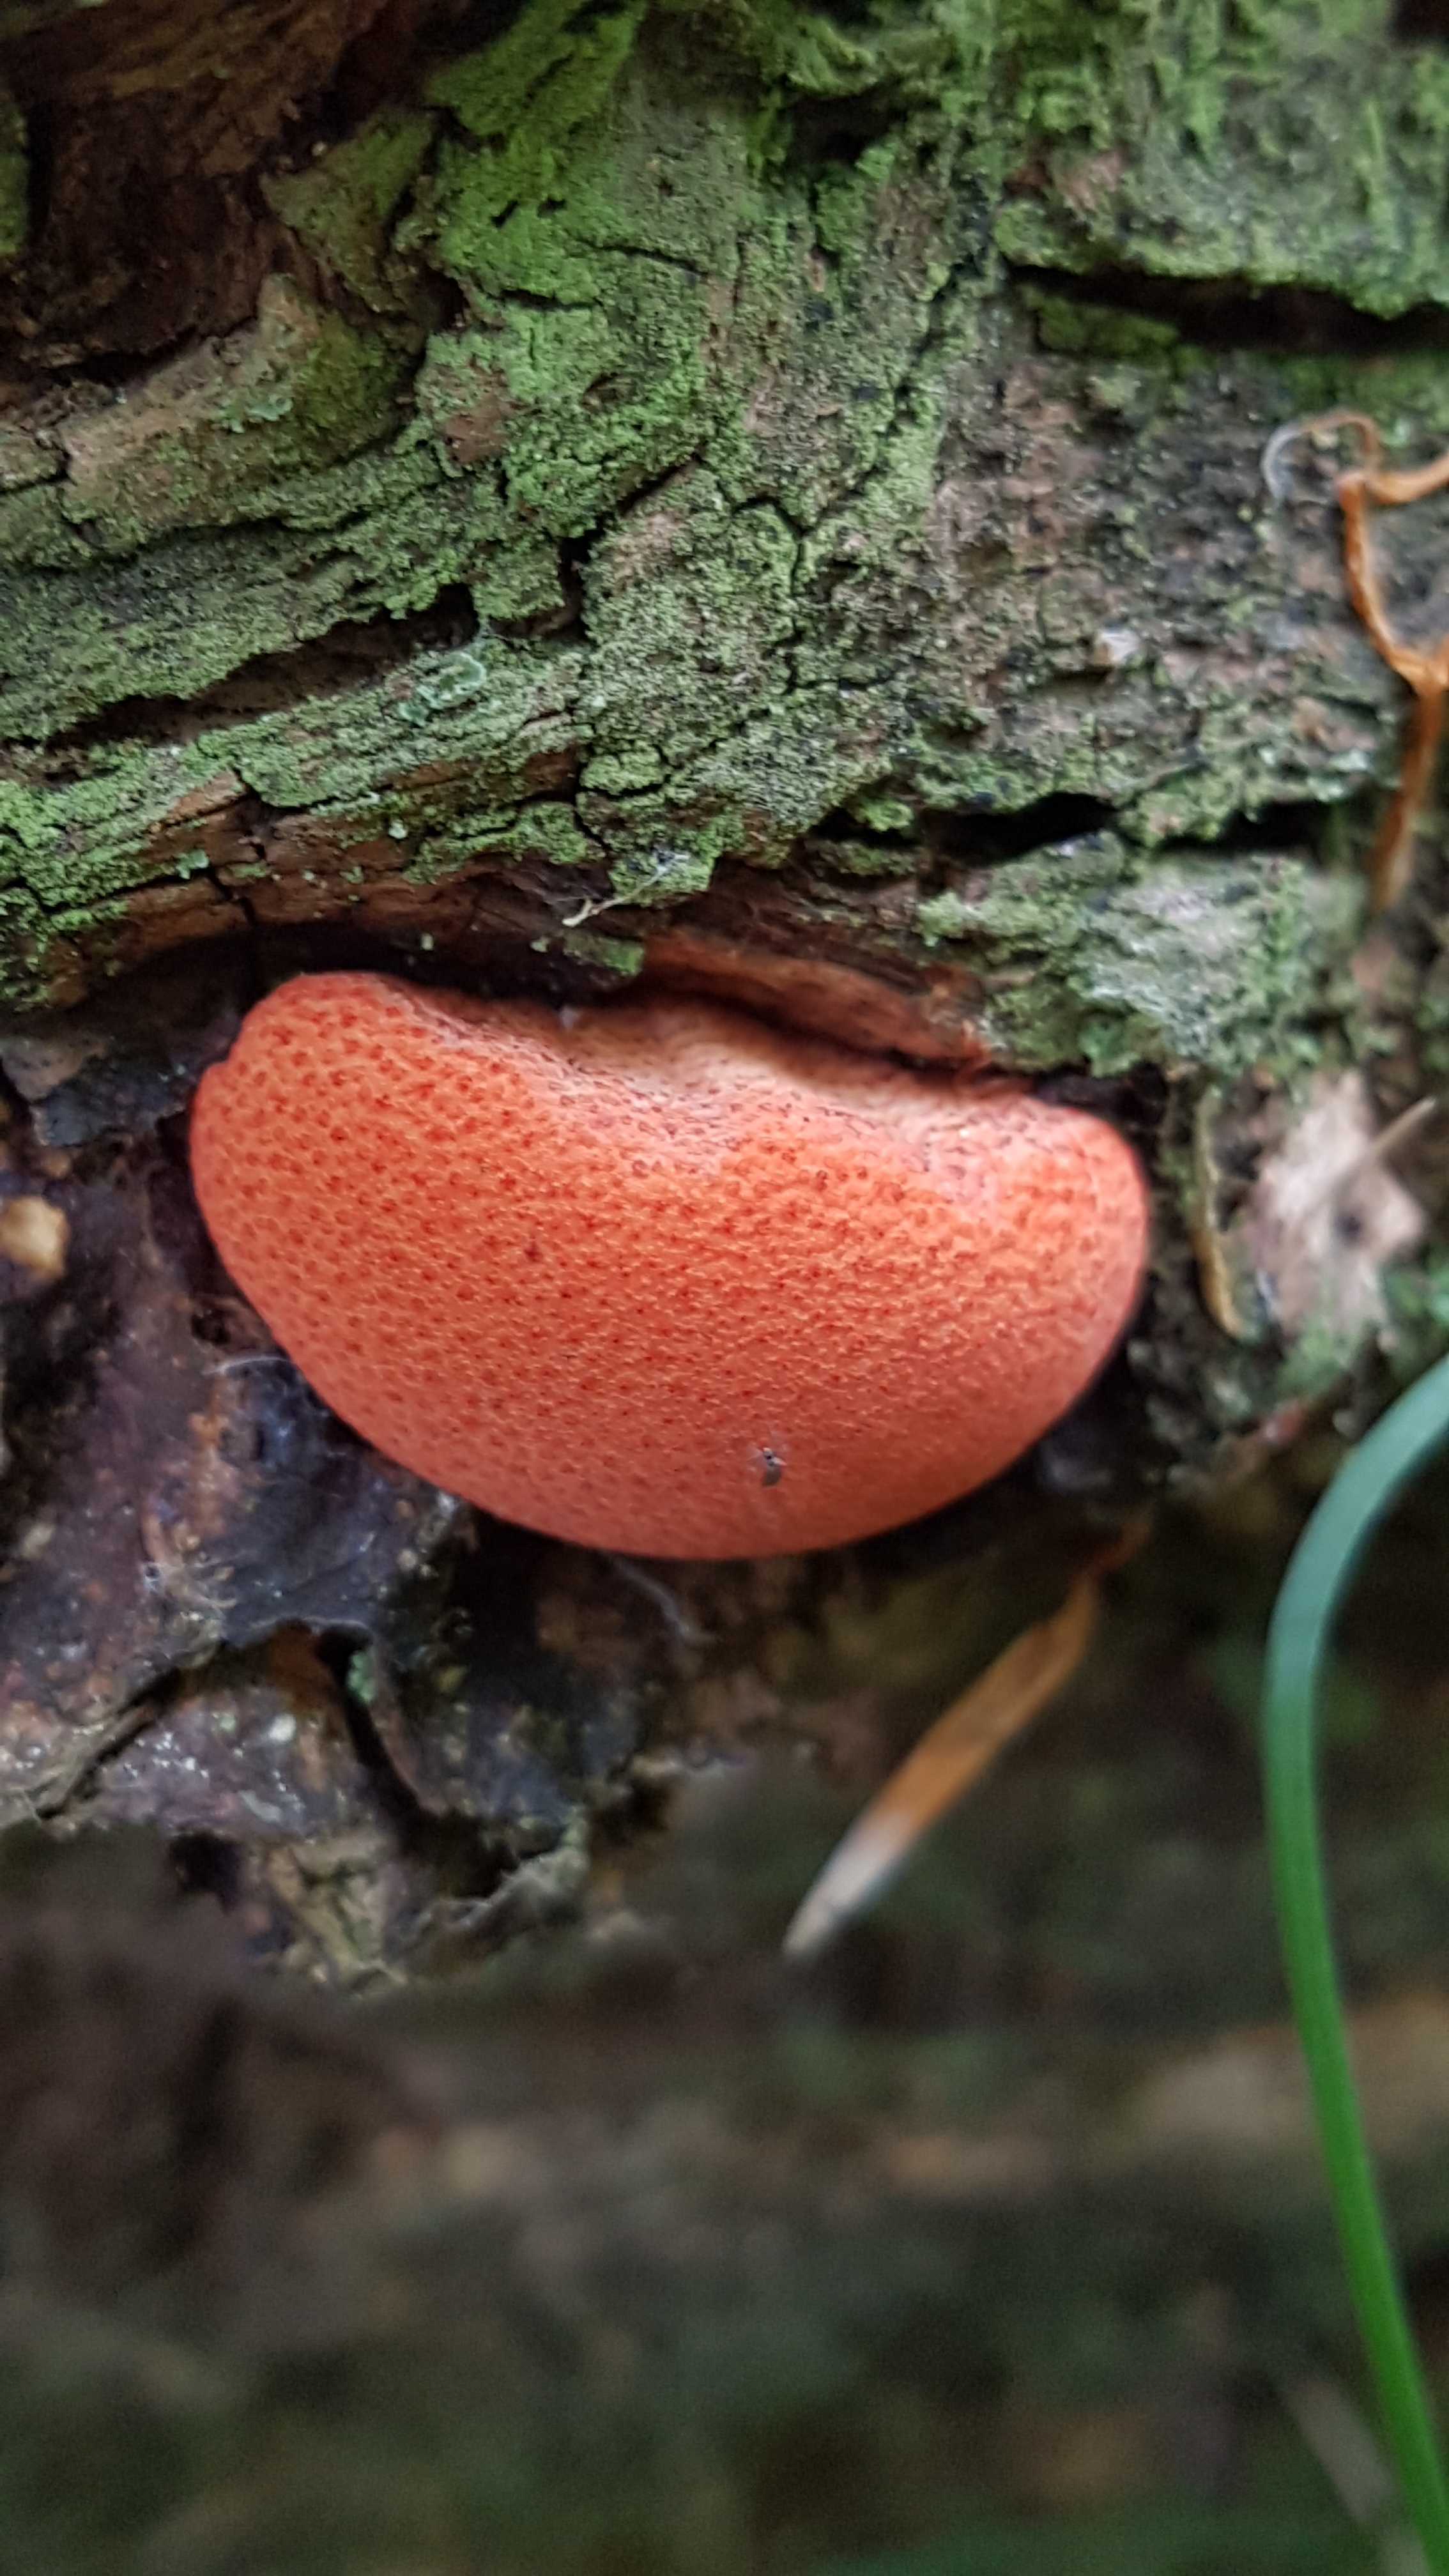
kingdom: Fungi
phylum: Basidiomycota
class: Agaricomycetes
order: Agaricales
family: Fistulinaceae
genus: Fistulina
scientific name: Fistulina hepatica
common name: oksetunge
